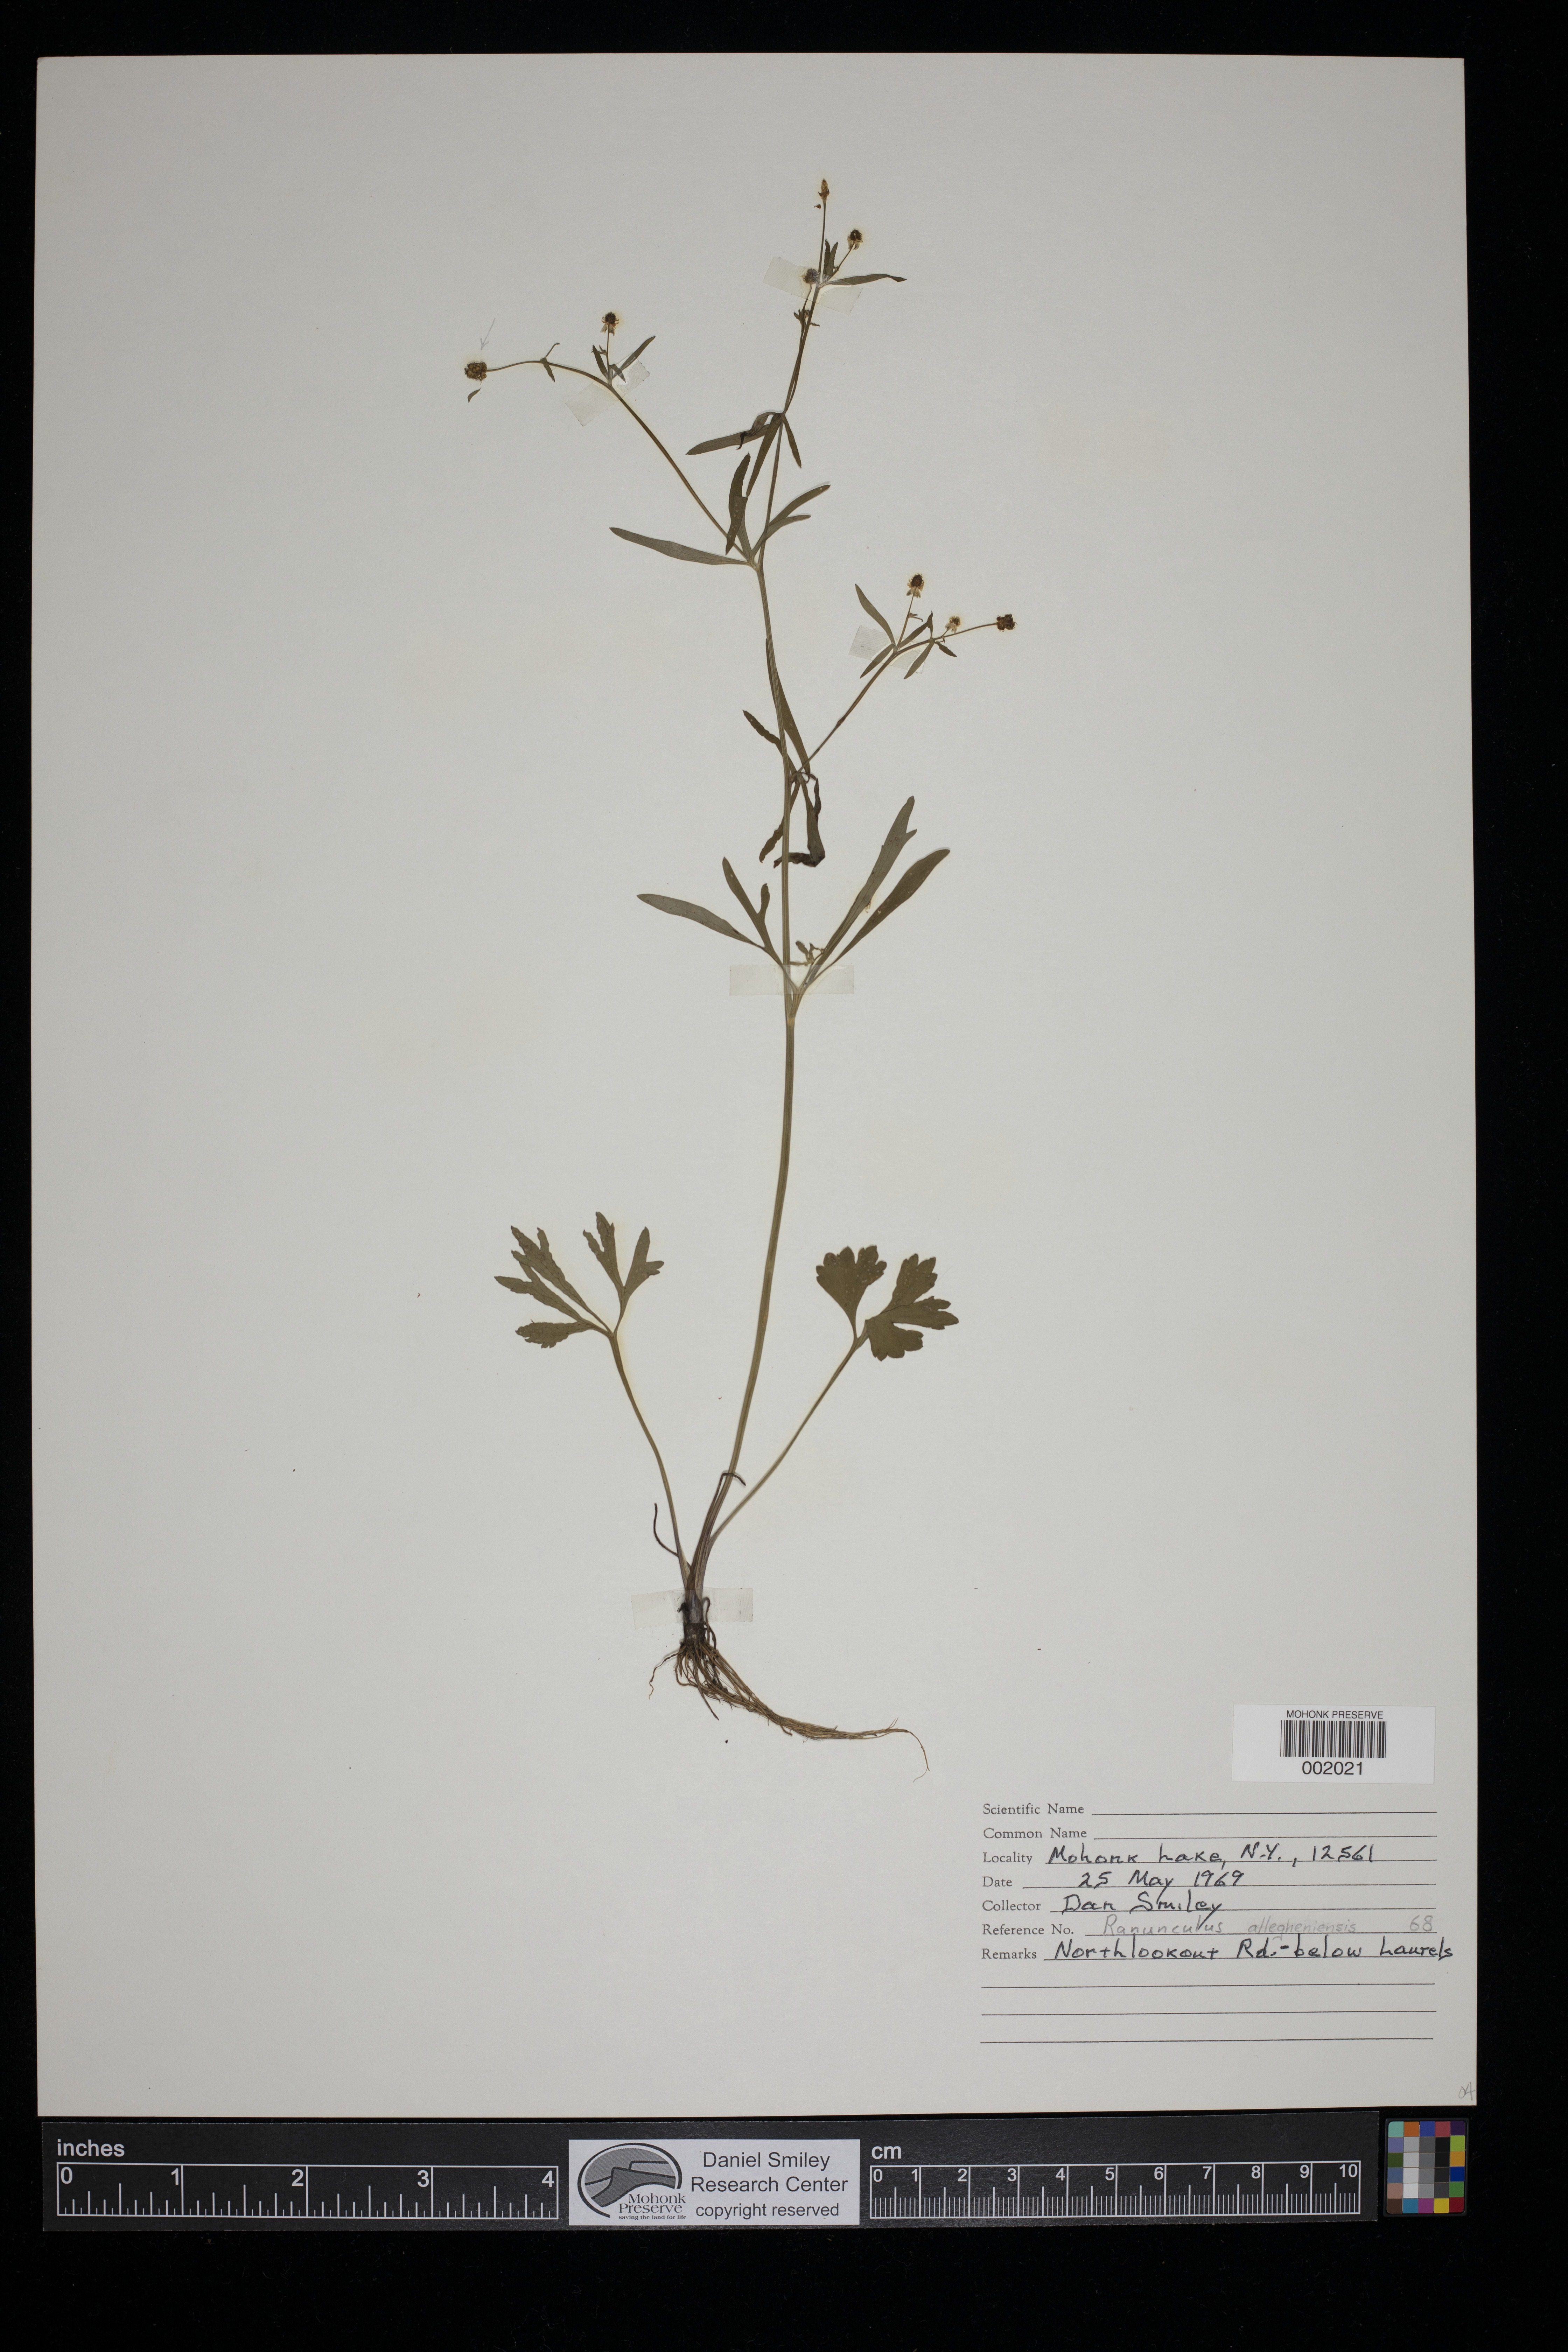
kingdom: Plantae
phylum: Tracheophyta
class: Magnoliopsida
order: Ranunculales
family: Ranunculaceae
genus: Ranunculus
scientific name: Ranunculus allegheniensis
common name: Allegheny mountain buttercup
